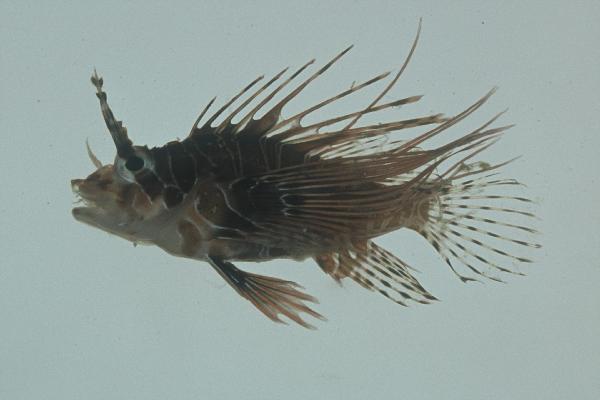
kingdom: Animalia
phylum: Chordata
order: Scorpaeniformes
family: Scorpaenidae
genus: Pterois
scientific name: Pterois antennata
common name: Spotfin lionfish
